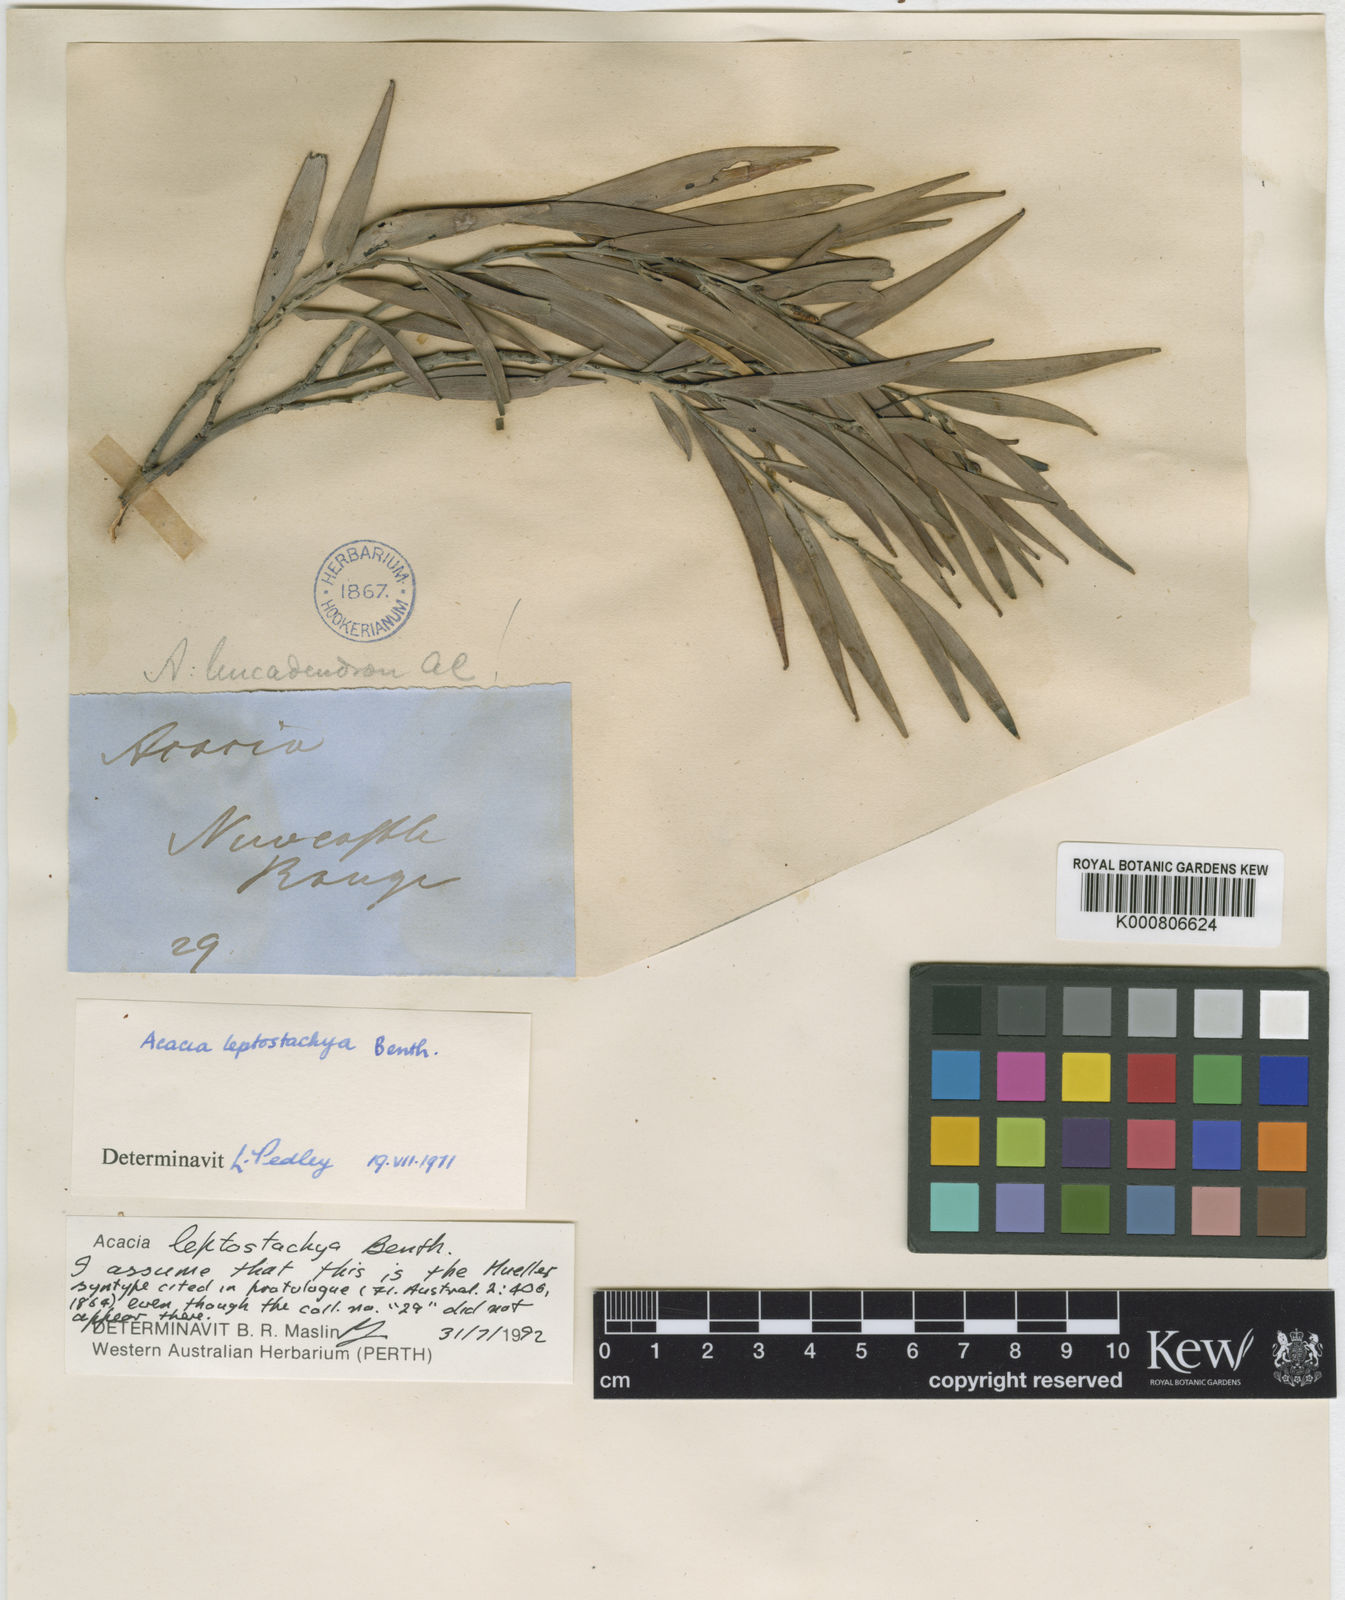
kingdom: Plantae
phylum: Tracheophyta
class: Magnoliopsida
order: Fabales
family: Fabaceae
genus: Acacia
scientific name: Acacia leptostachya
